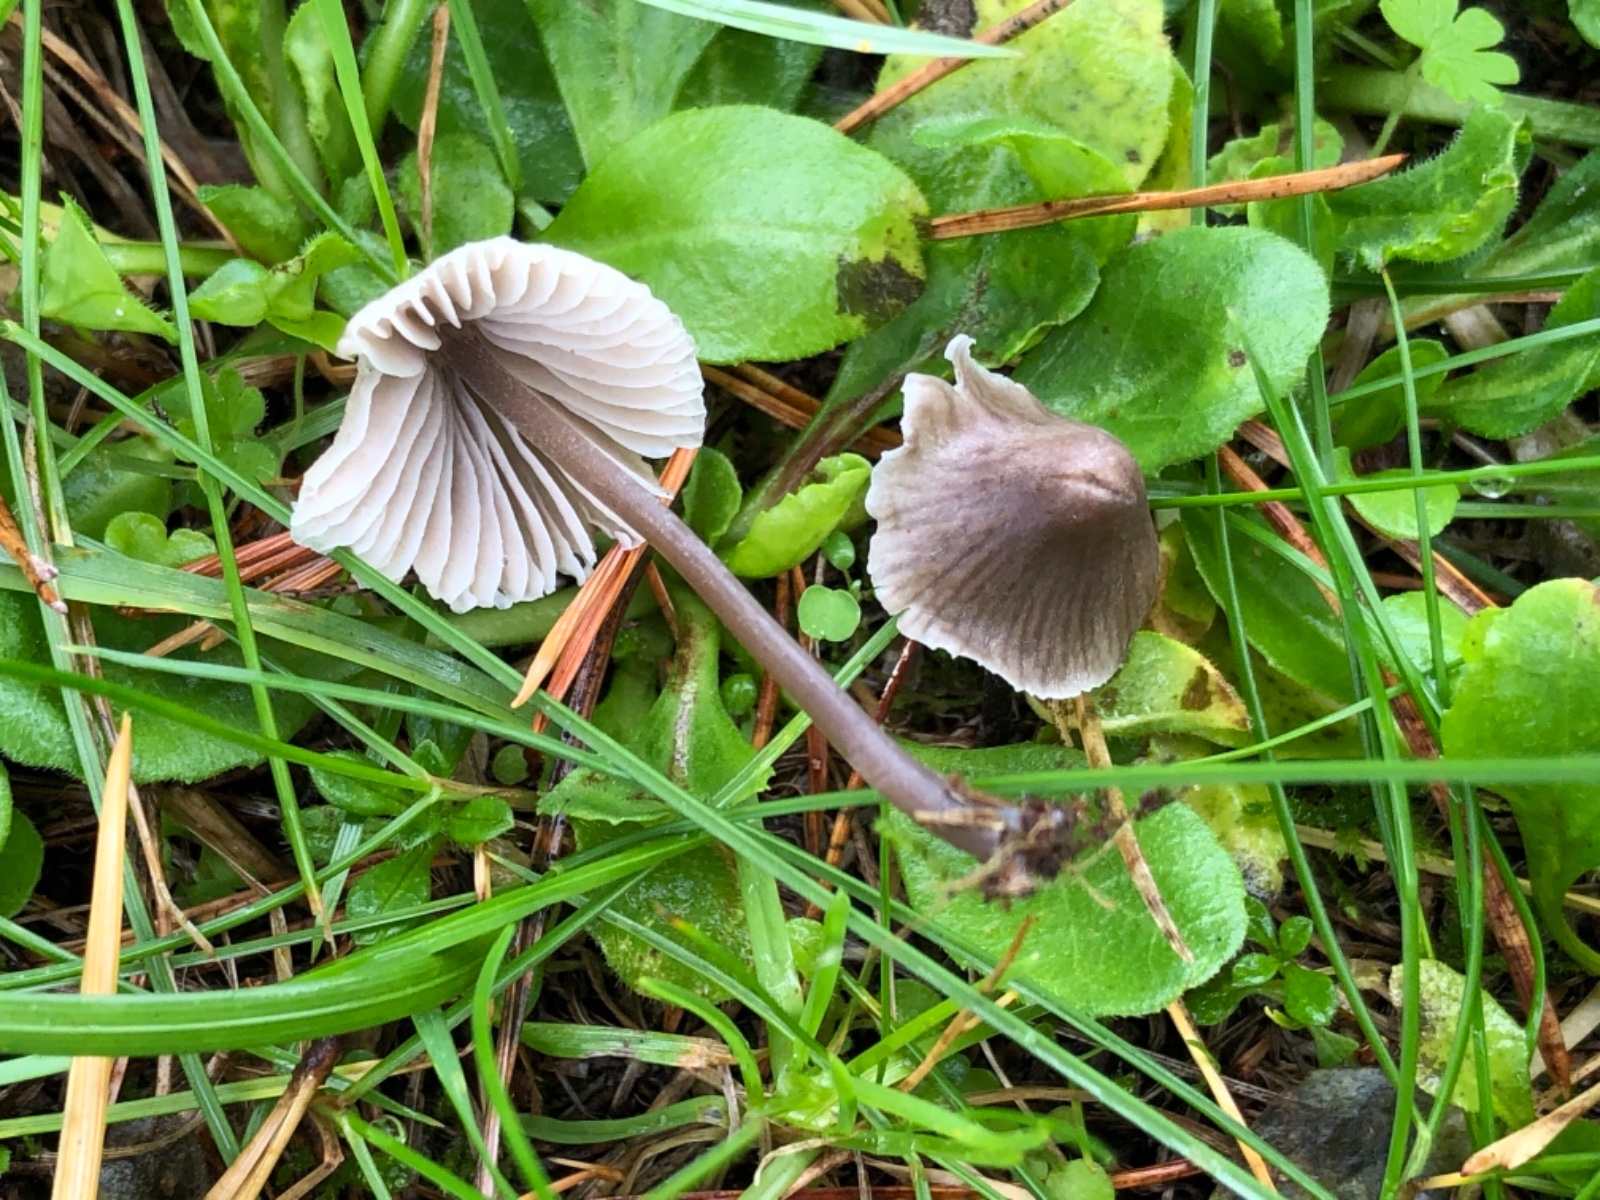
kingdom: Fungi
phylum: Basidiomycota
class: Agaricomycetes
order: Agaricales
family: Mycenaceae
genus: Mycena
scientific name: Mycena leptocephala
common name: klor-huesvamp
